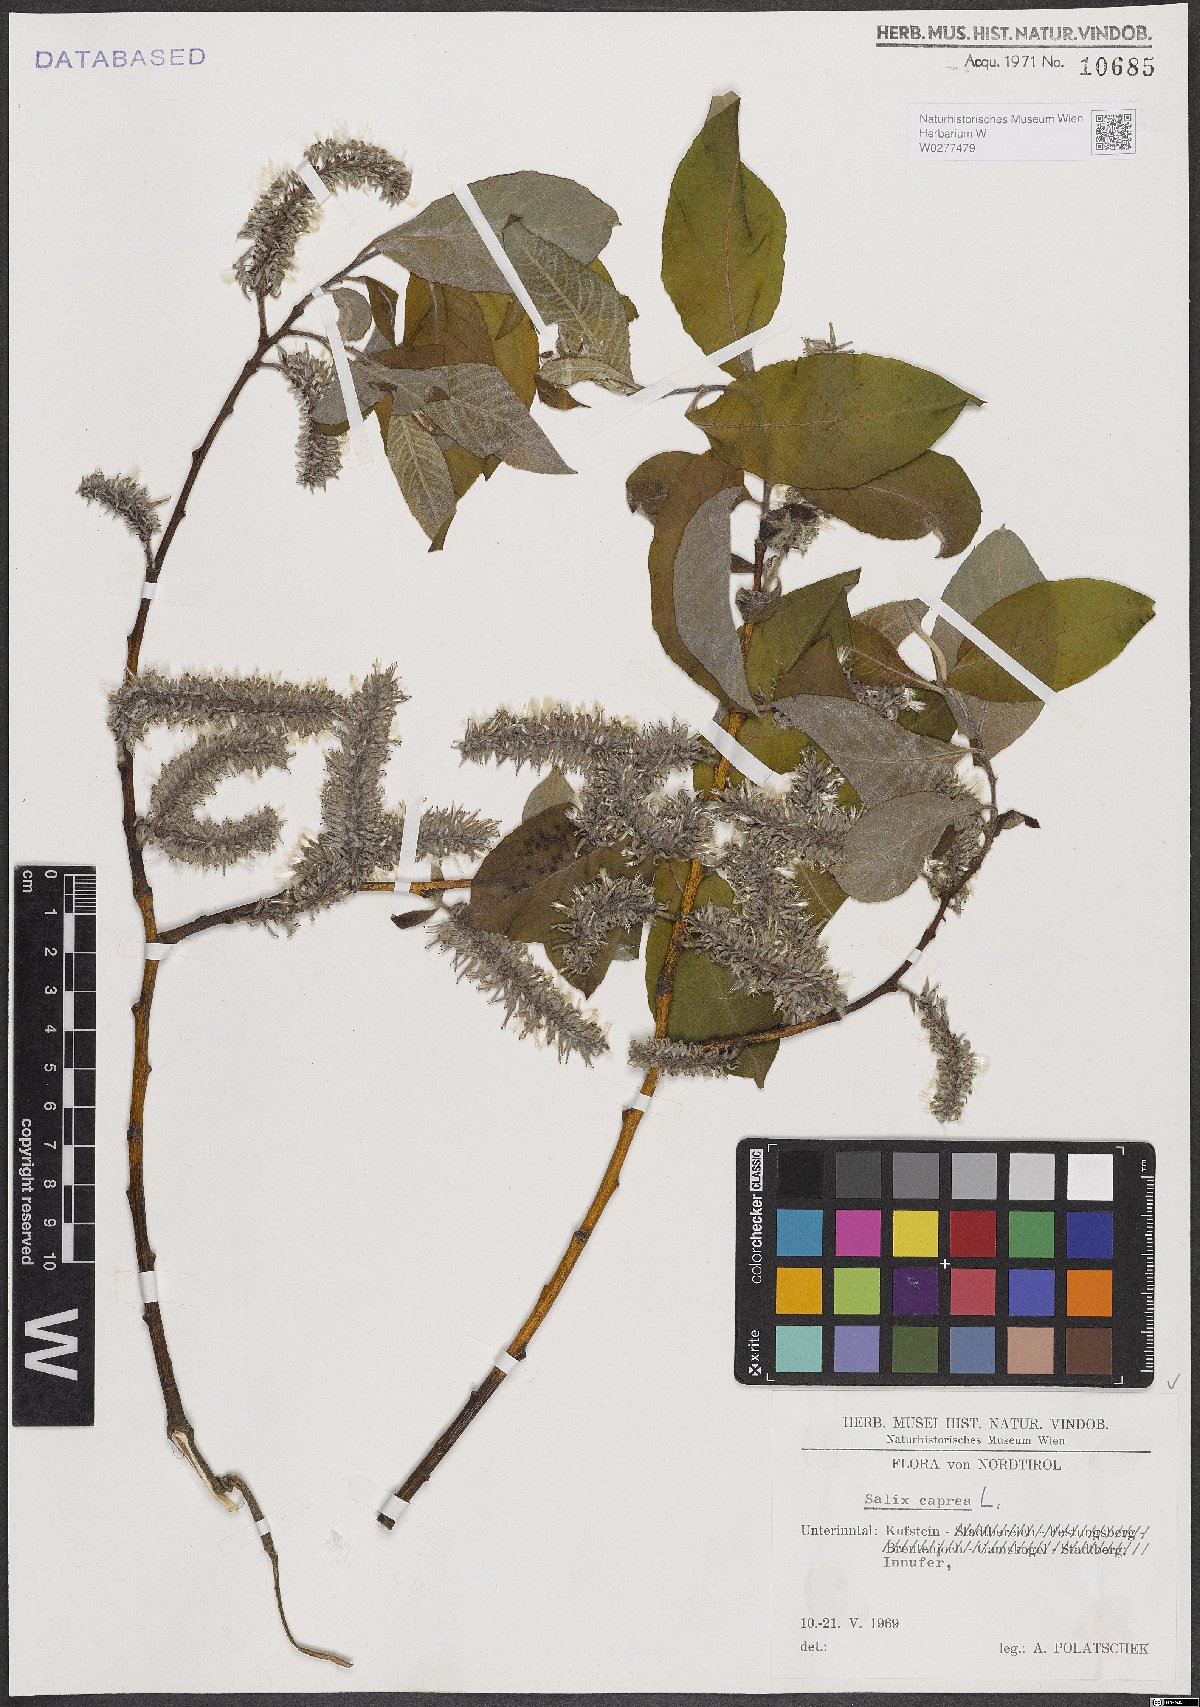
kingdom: Plantae
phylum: Tracheophyta
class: Magnoliopsida
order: Malpighiales
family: Salicaceae
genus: Salix
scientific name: Salix caprea
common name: Goat willow
